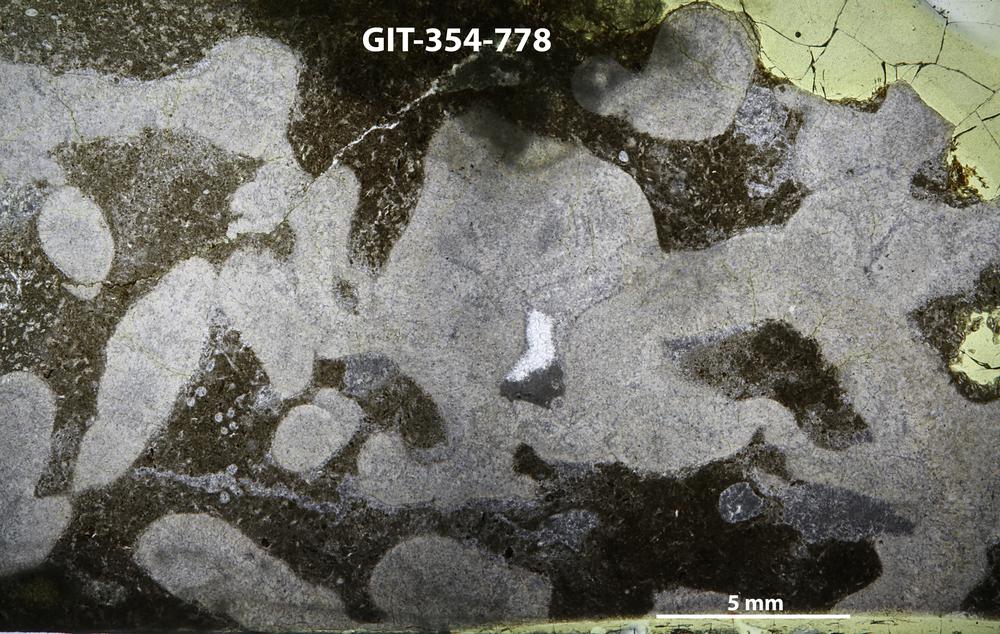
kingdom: Animalia
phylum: Nemertea
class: Hoplonemertea
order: Monostilifera
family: Amphiporidae
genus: Clathrodictyella
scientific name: Clathrodictyella
